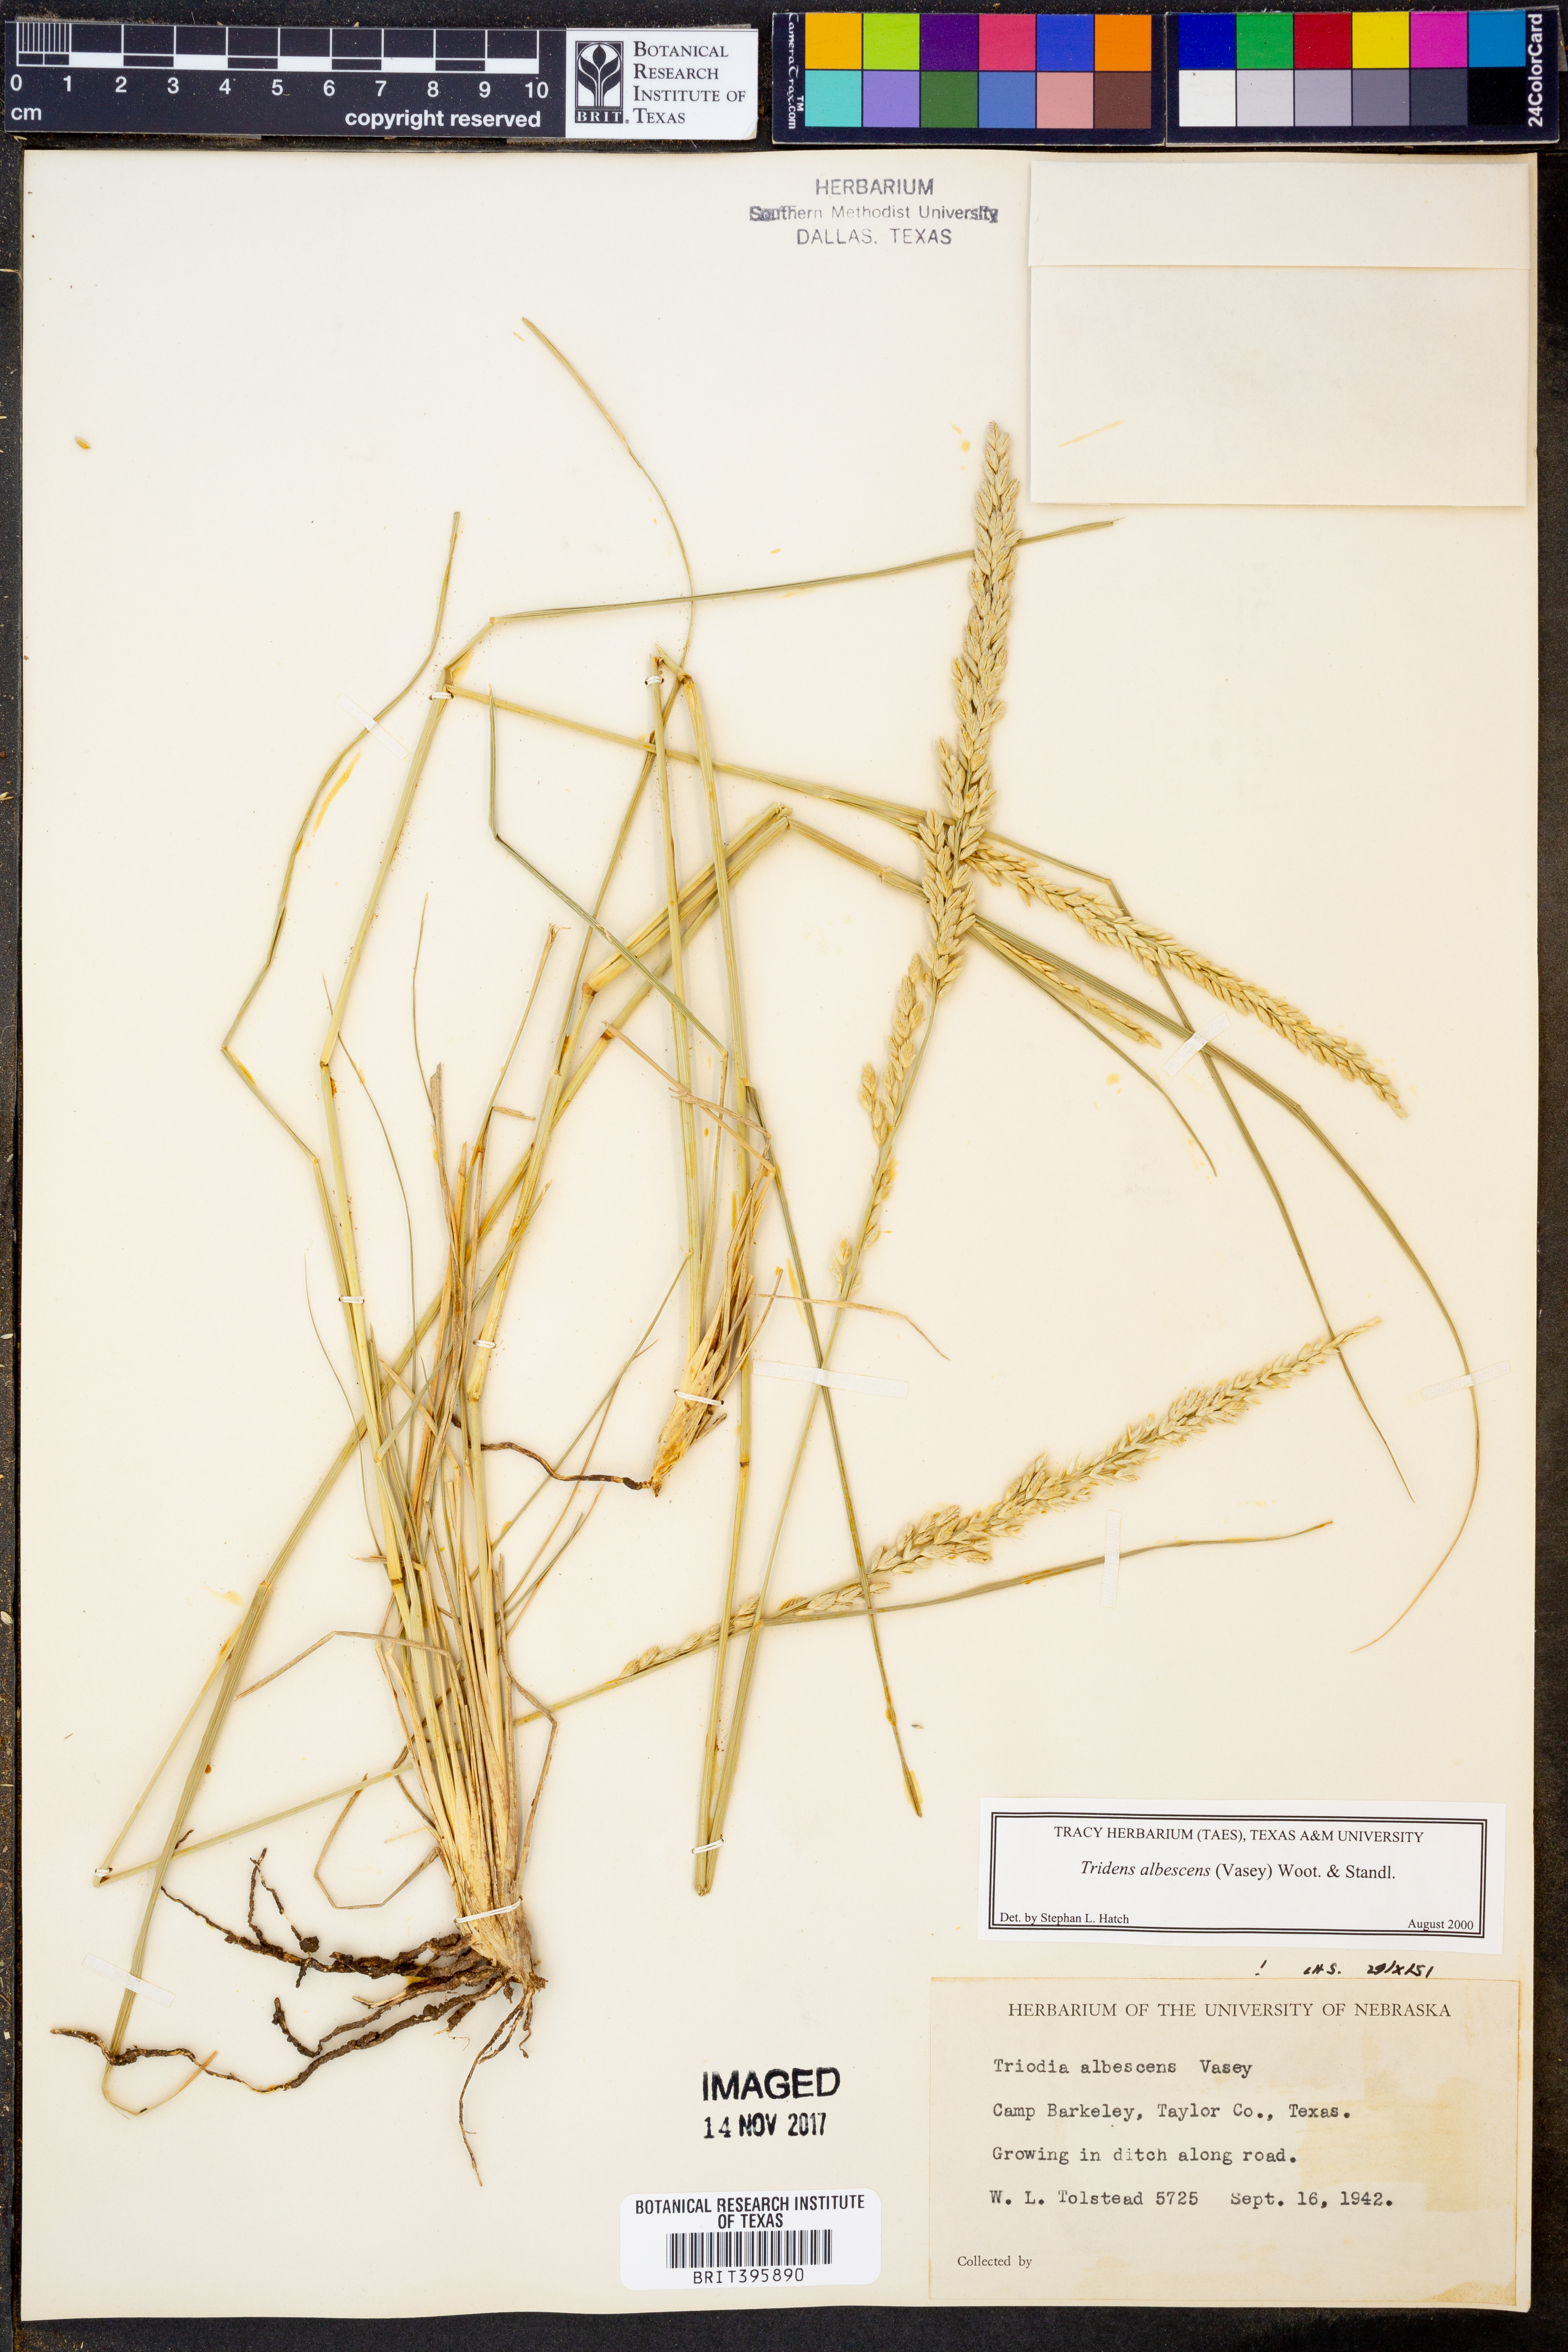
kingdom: Plantae
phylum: Tracheophyta
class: Liliopsida
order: Poales
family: Poaceae
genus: Tridens
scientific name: Tridens albescens
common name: White tridens
